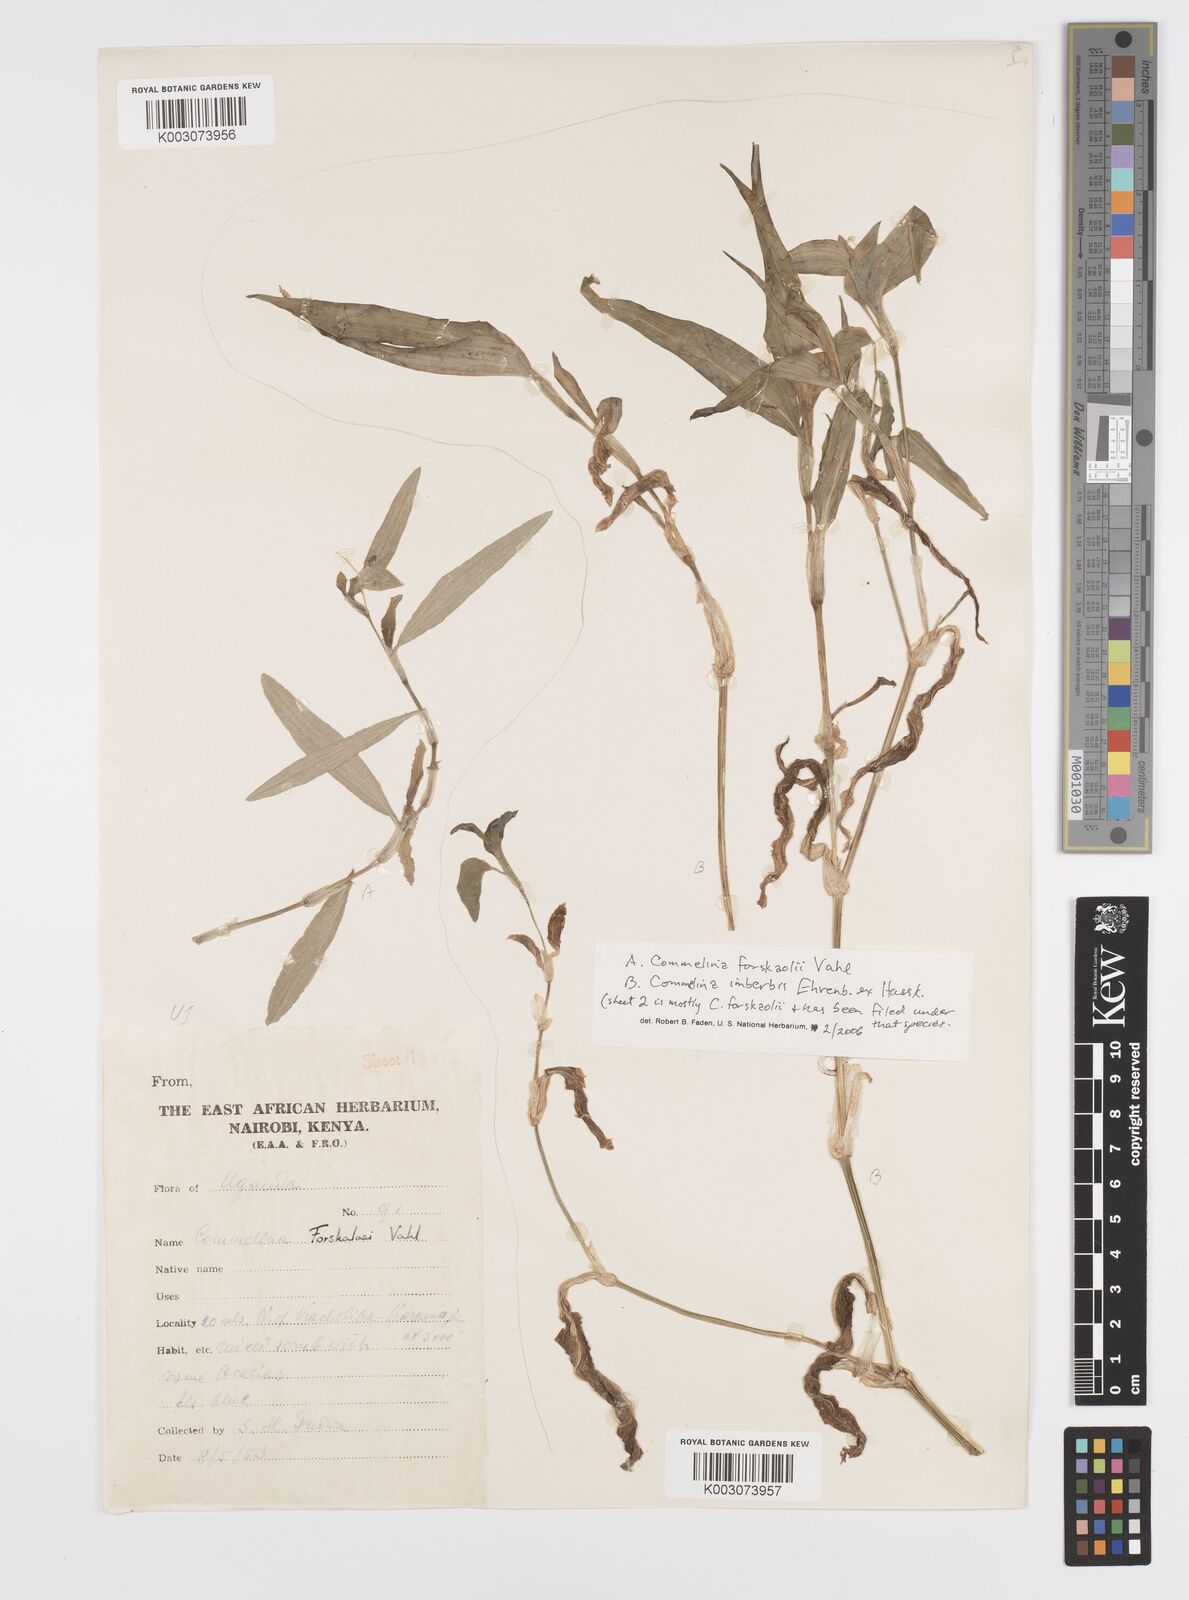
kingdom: Plantae
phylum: Tracheophyta
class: Liliopsida
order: Commelinales
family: Commelinaceae
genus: Commelina
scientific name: Commelina imberbis
